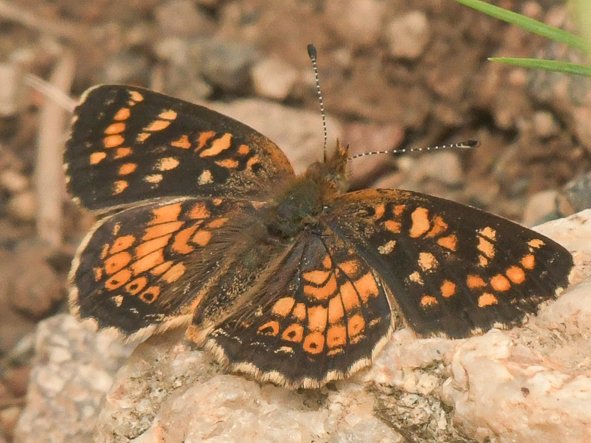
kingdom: Animalia
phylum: Arthropoda
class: Insecta
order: Lepidoptera
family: Nymphalidae
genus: Phyciodes
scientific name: Phyciodes tharos
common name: Field Crescent
